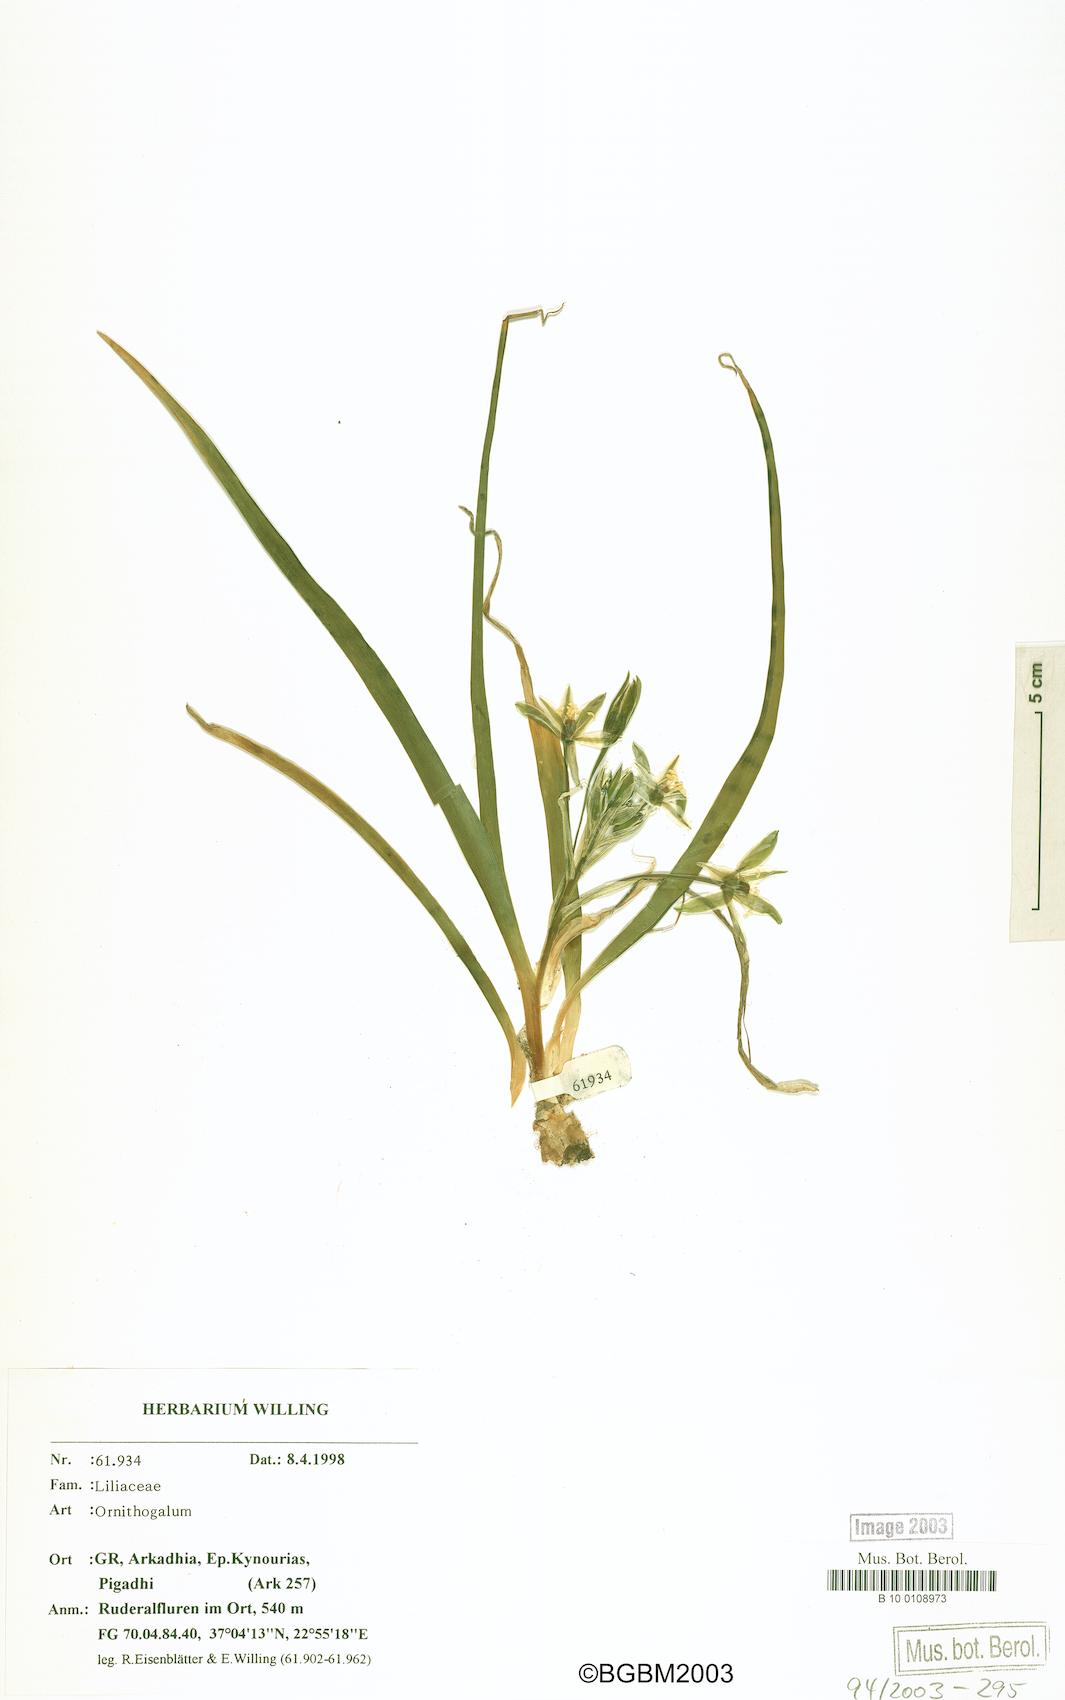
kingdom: Plantae
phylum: Tracheophyta
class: Liliopsida
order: Asparagales
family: Asparagaceae
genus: Ornithogalum
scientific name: Ornithogalum
